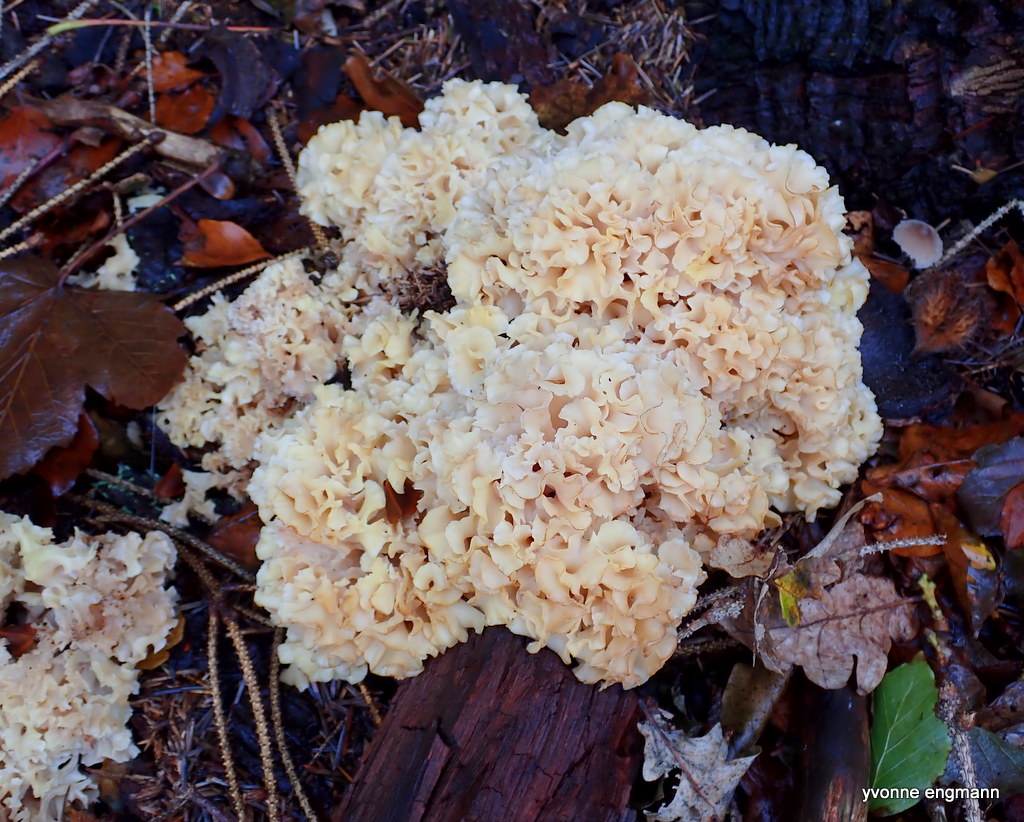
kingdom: Fungi
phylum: Basidiomycota
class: Agaricomycetes
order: Polyporales
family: Sparassidaceae
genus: Sparassis
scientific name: Sparassis crispa
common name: kruset blomkålssvamp
